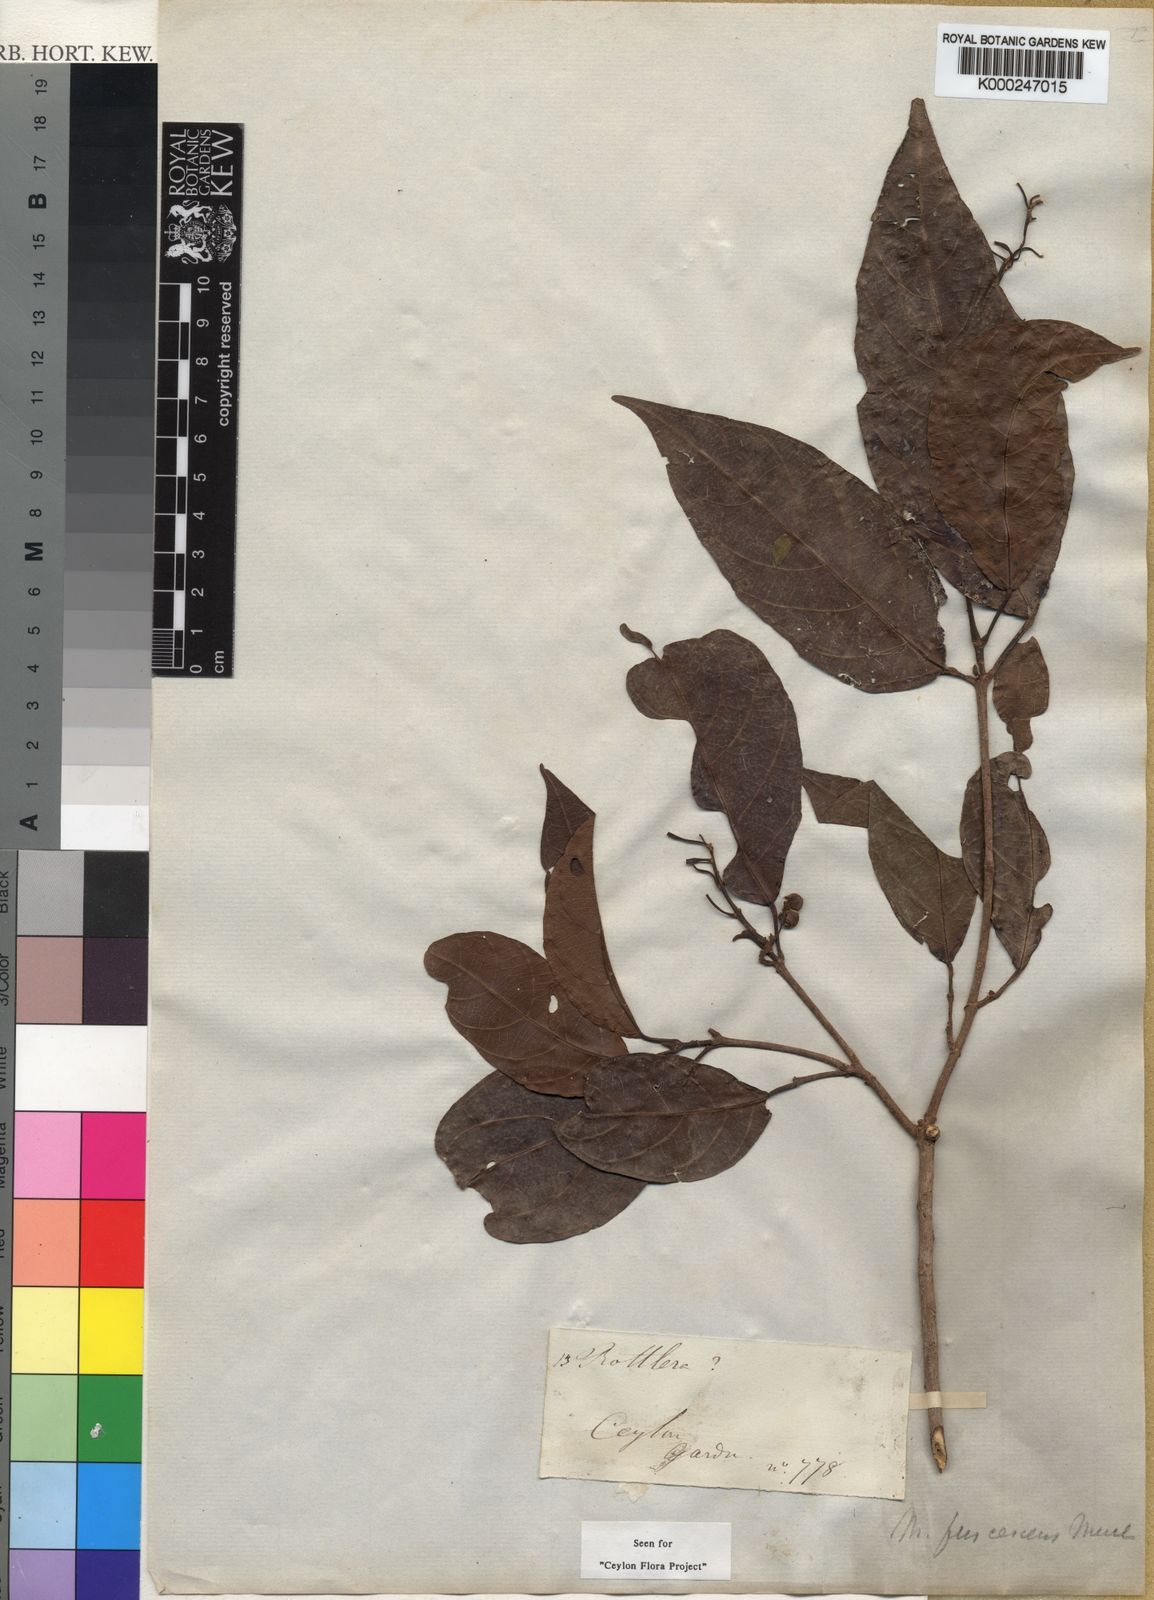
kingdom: Plantae
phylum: Tracheophyta
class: Magnoliopsida
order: Malpighiales
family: Euphorbiaceae
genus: Mallotus
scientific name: Mallotus
